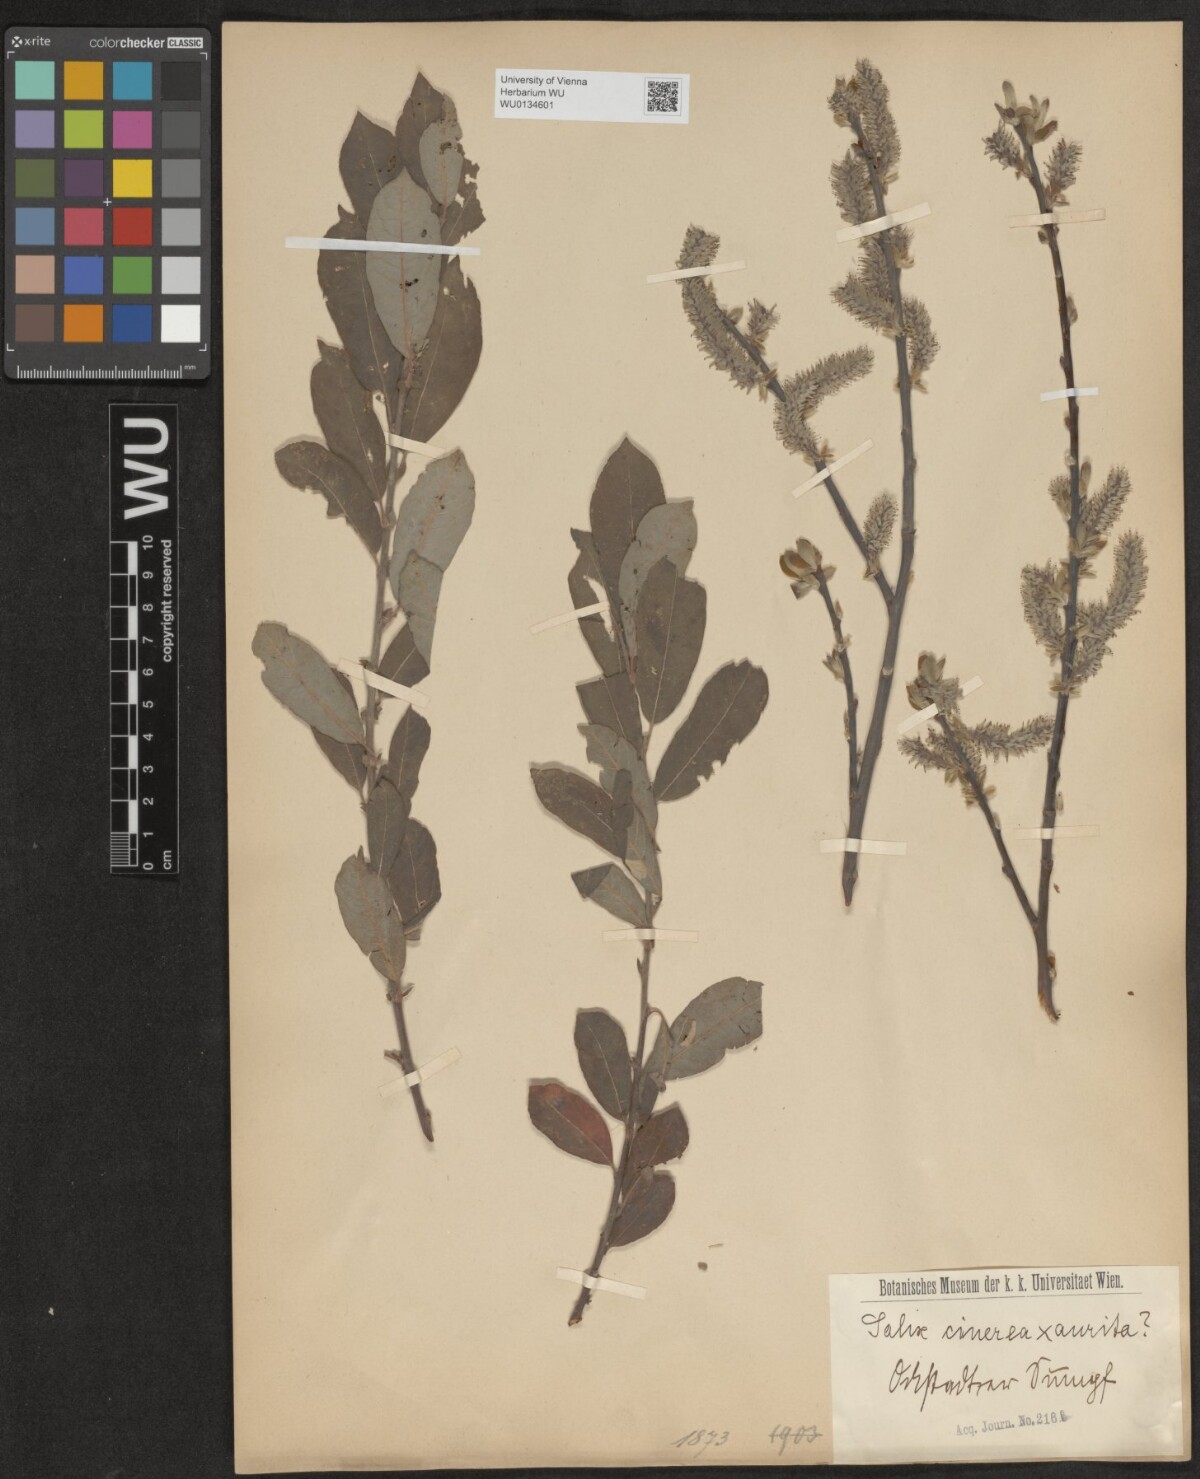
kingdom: Plantae
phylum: Tracheophyta
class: Magnoliopsida
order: Malpighiales
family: Salicaceae
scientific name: Salicaceae
